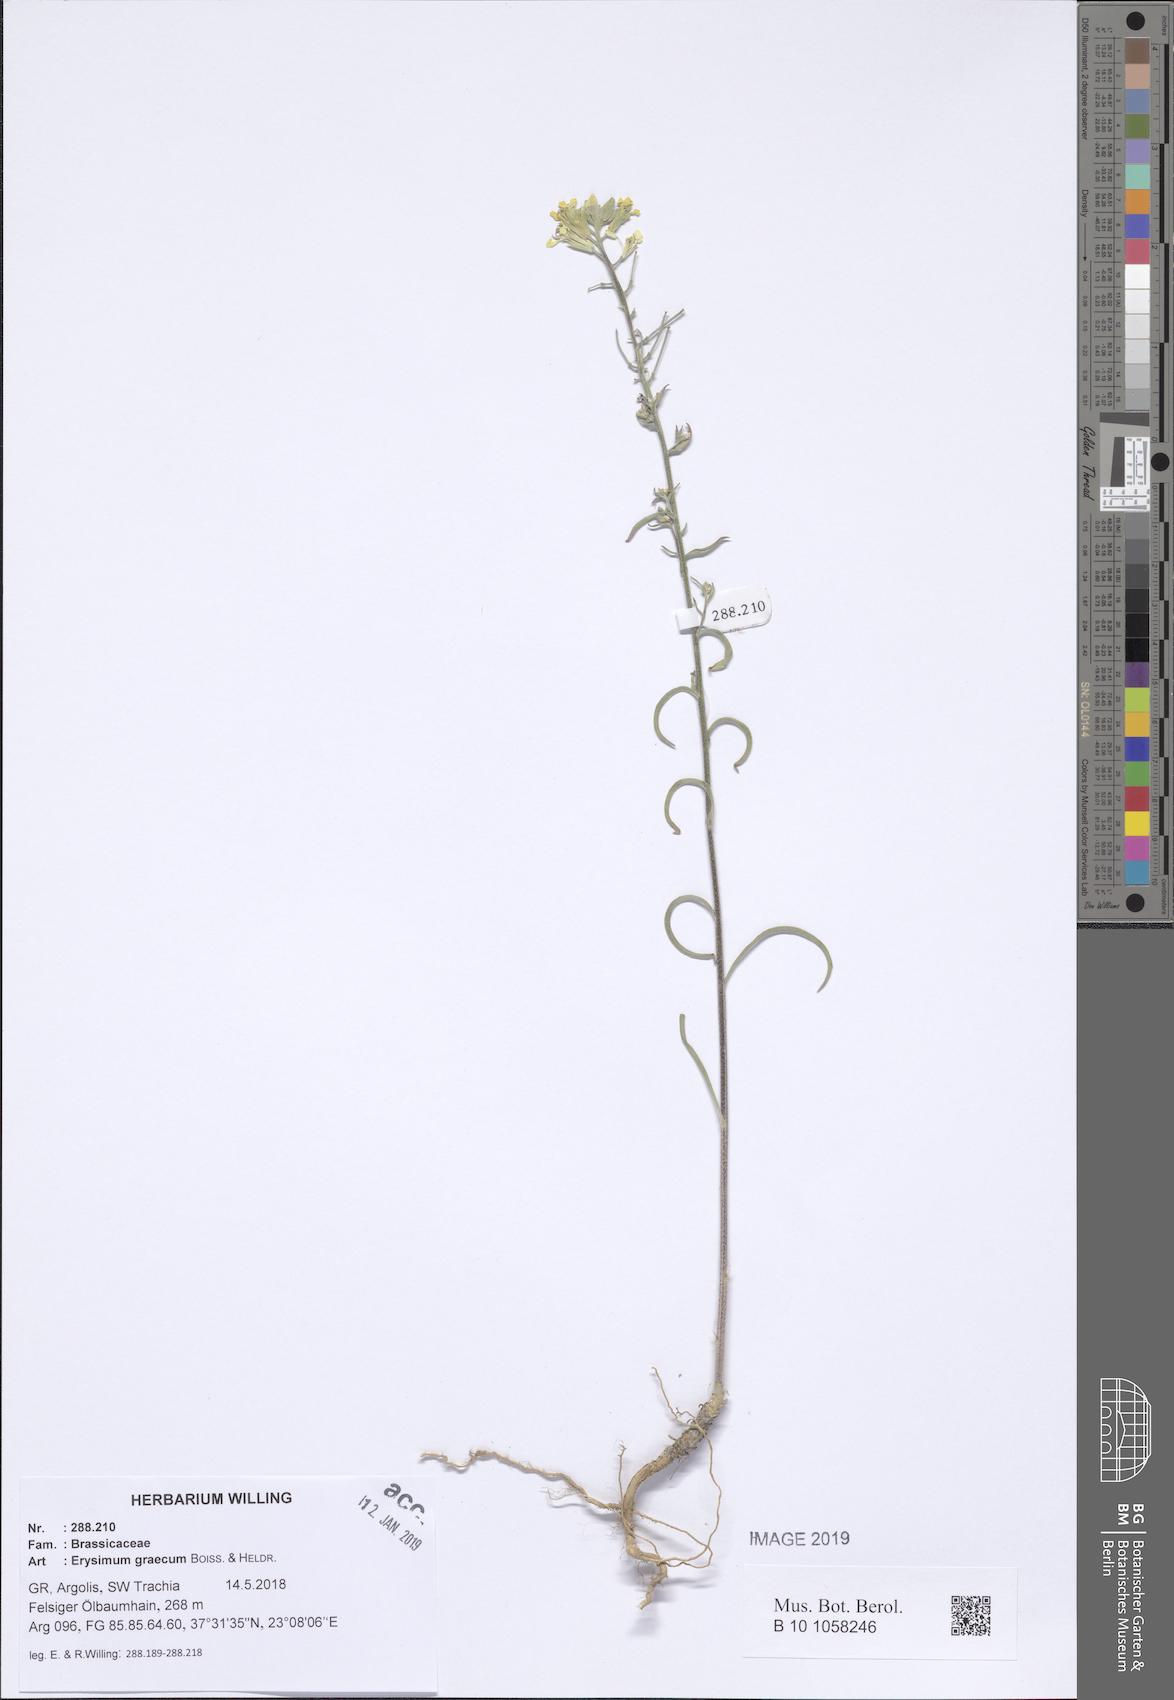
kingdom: Plantae
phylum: Tracheophyta
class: Magnoliopsida
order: Brassicales
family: Brassicaceae
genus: Erysimum
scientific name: Erysimum graecum
